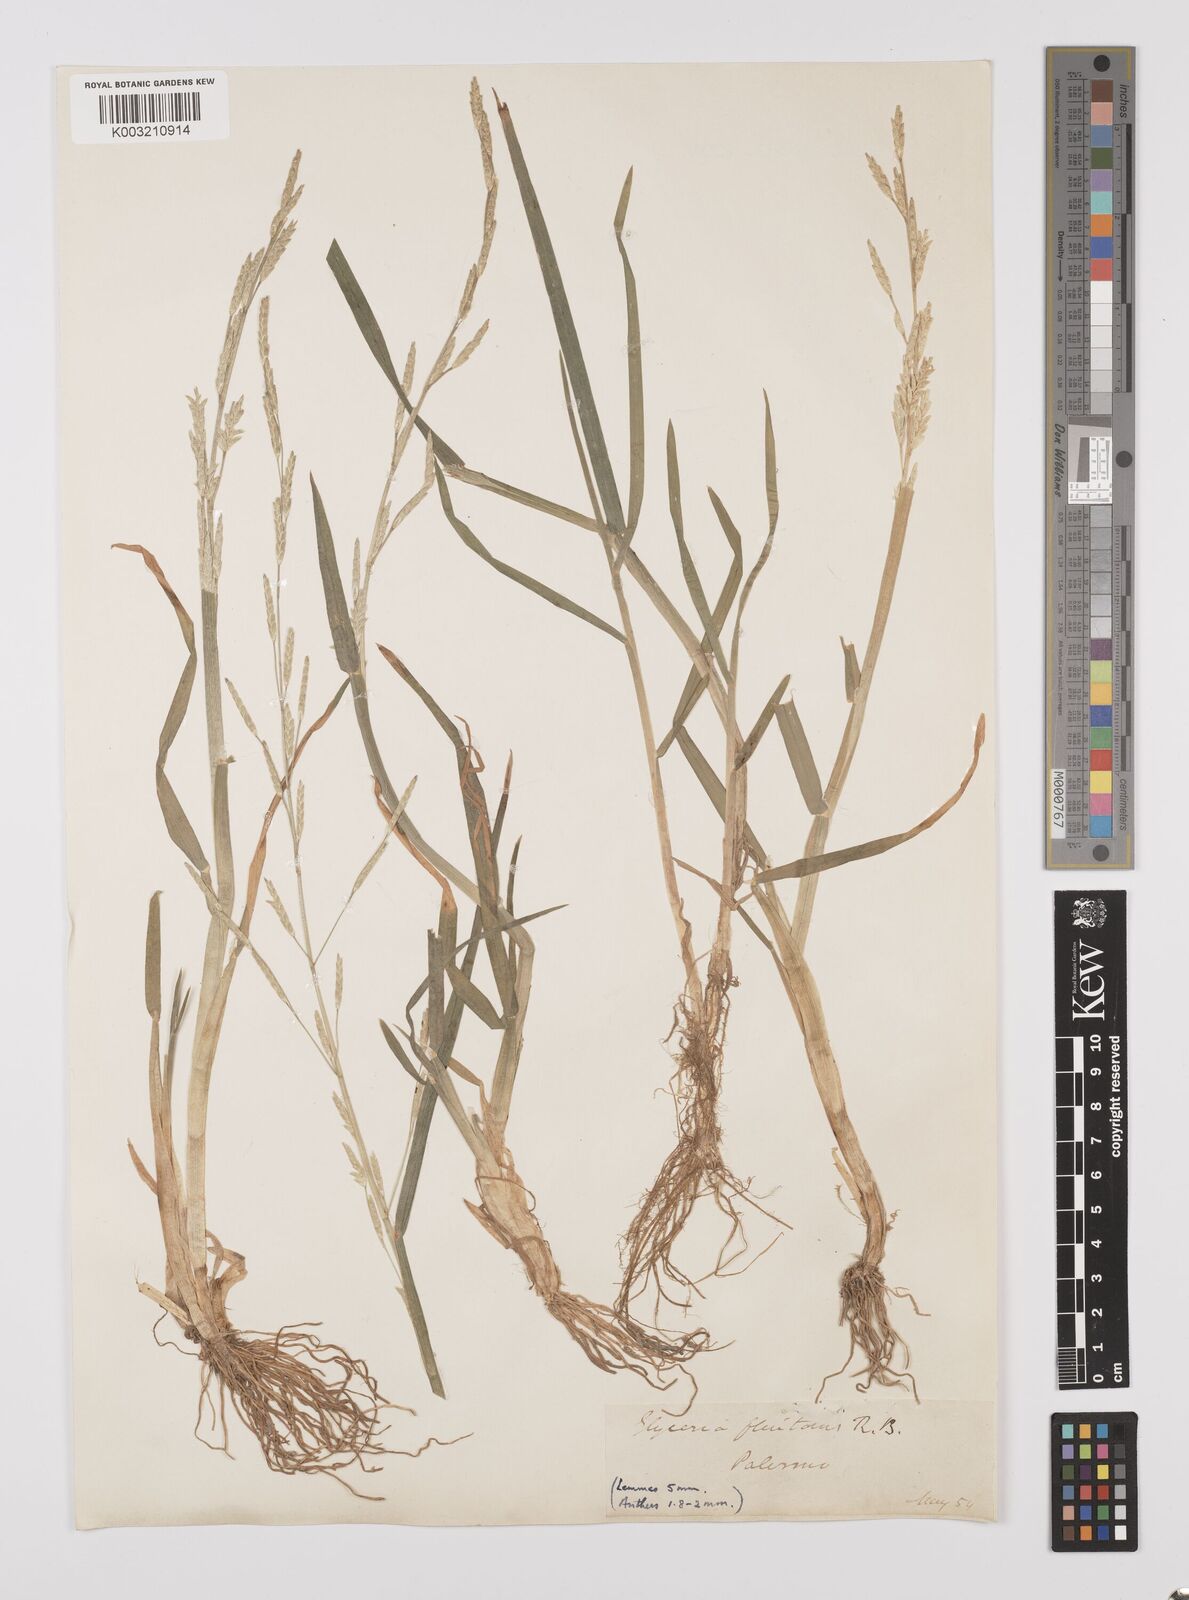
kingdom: Plantae
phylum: Tracheophyta
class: Liliopsida
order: Poales
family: Poaceae
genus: Glyceria
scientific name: Glyceria fluitans
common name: Floating sweet-grass
